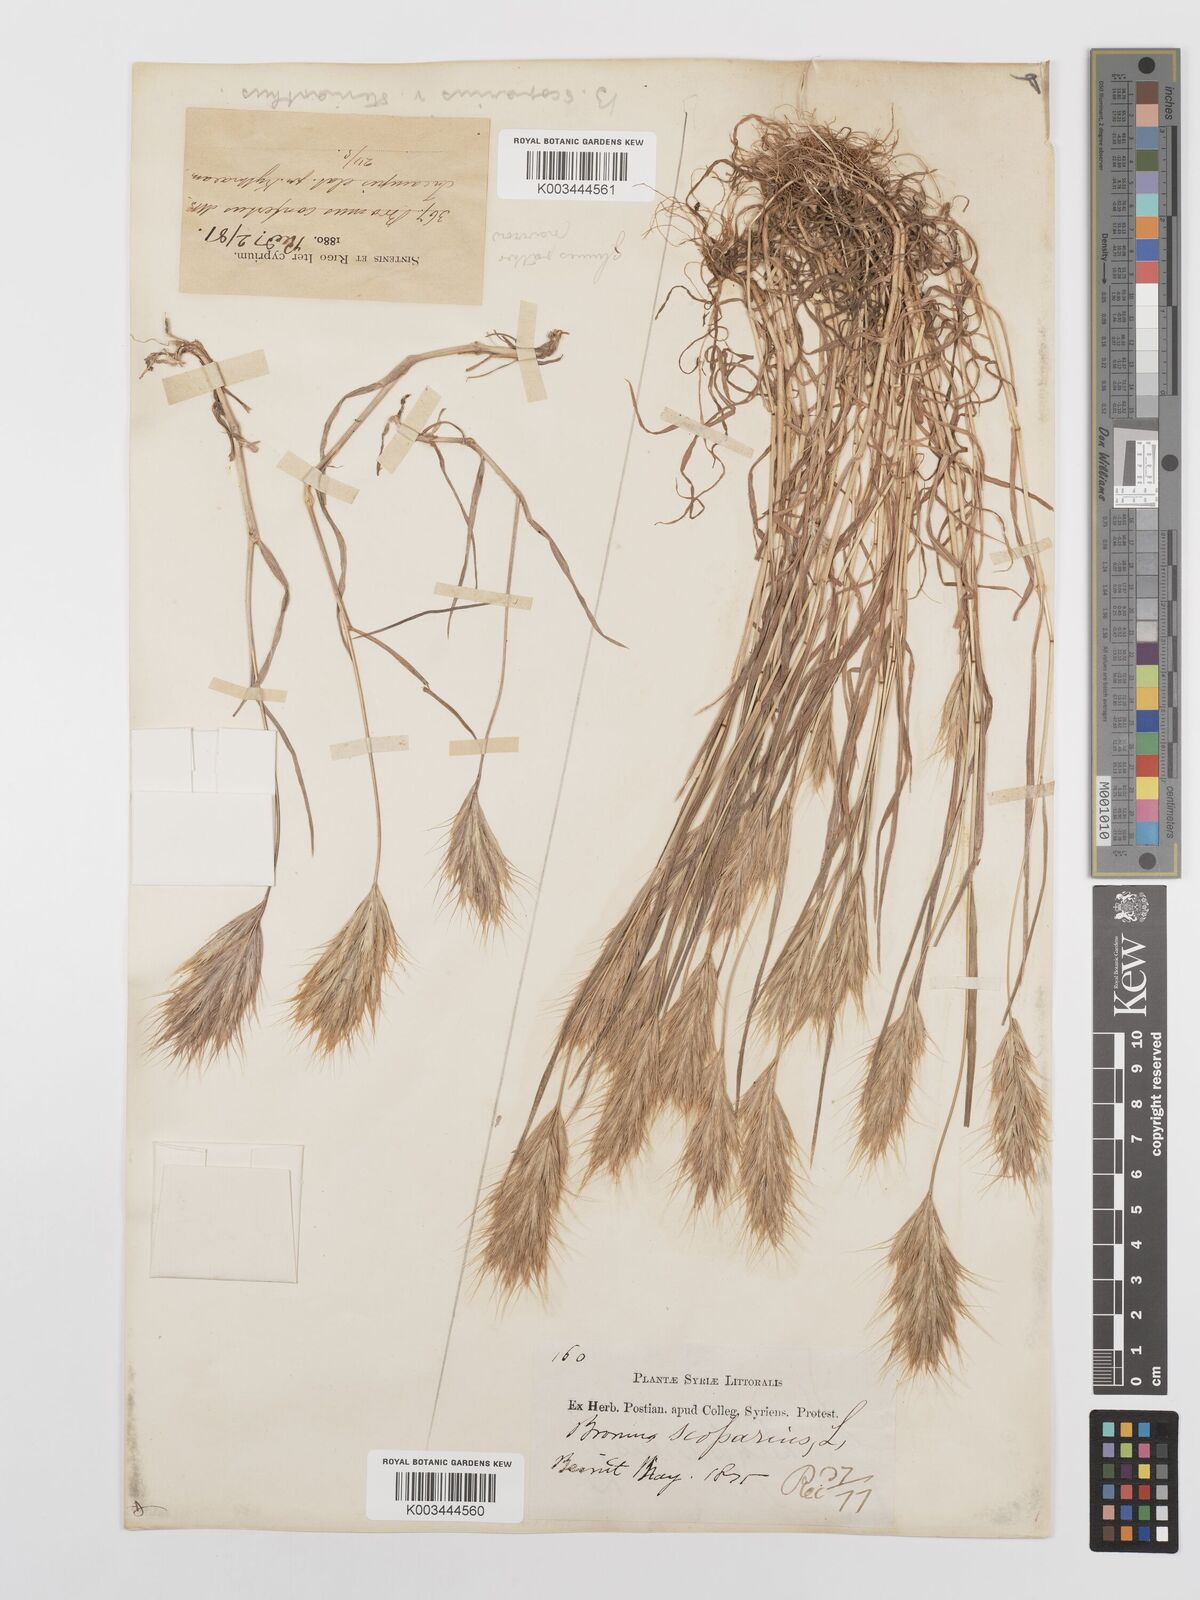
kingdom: Plantae
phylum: Tracheophyta
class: Liliopsida
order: Poales
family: Poaceae
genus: Bromus
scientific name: Bromus scoparius
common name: Broom brome
